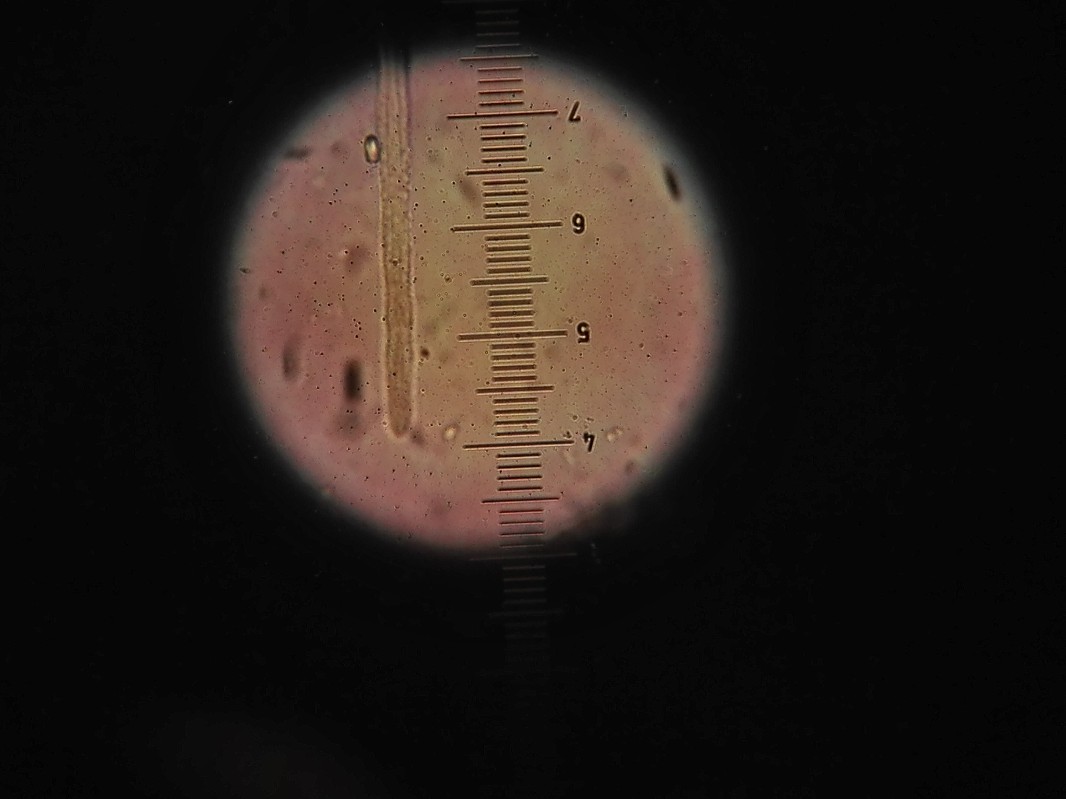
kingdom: Fungi
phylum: Ascomycota
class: Leotiomycetes
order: Helotiales
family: Lachnaceae
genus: Lachnum
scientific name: Lachnum patulum
